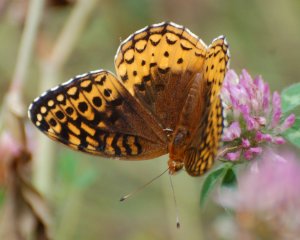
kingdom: Animalia
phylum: Arthropoda
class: Insecta
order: Lepidoptera
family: Nymphalidae
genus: Speyeria
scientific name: Speyeria cybele
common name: Great Spangled Fritillary
